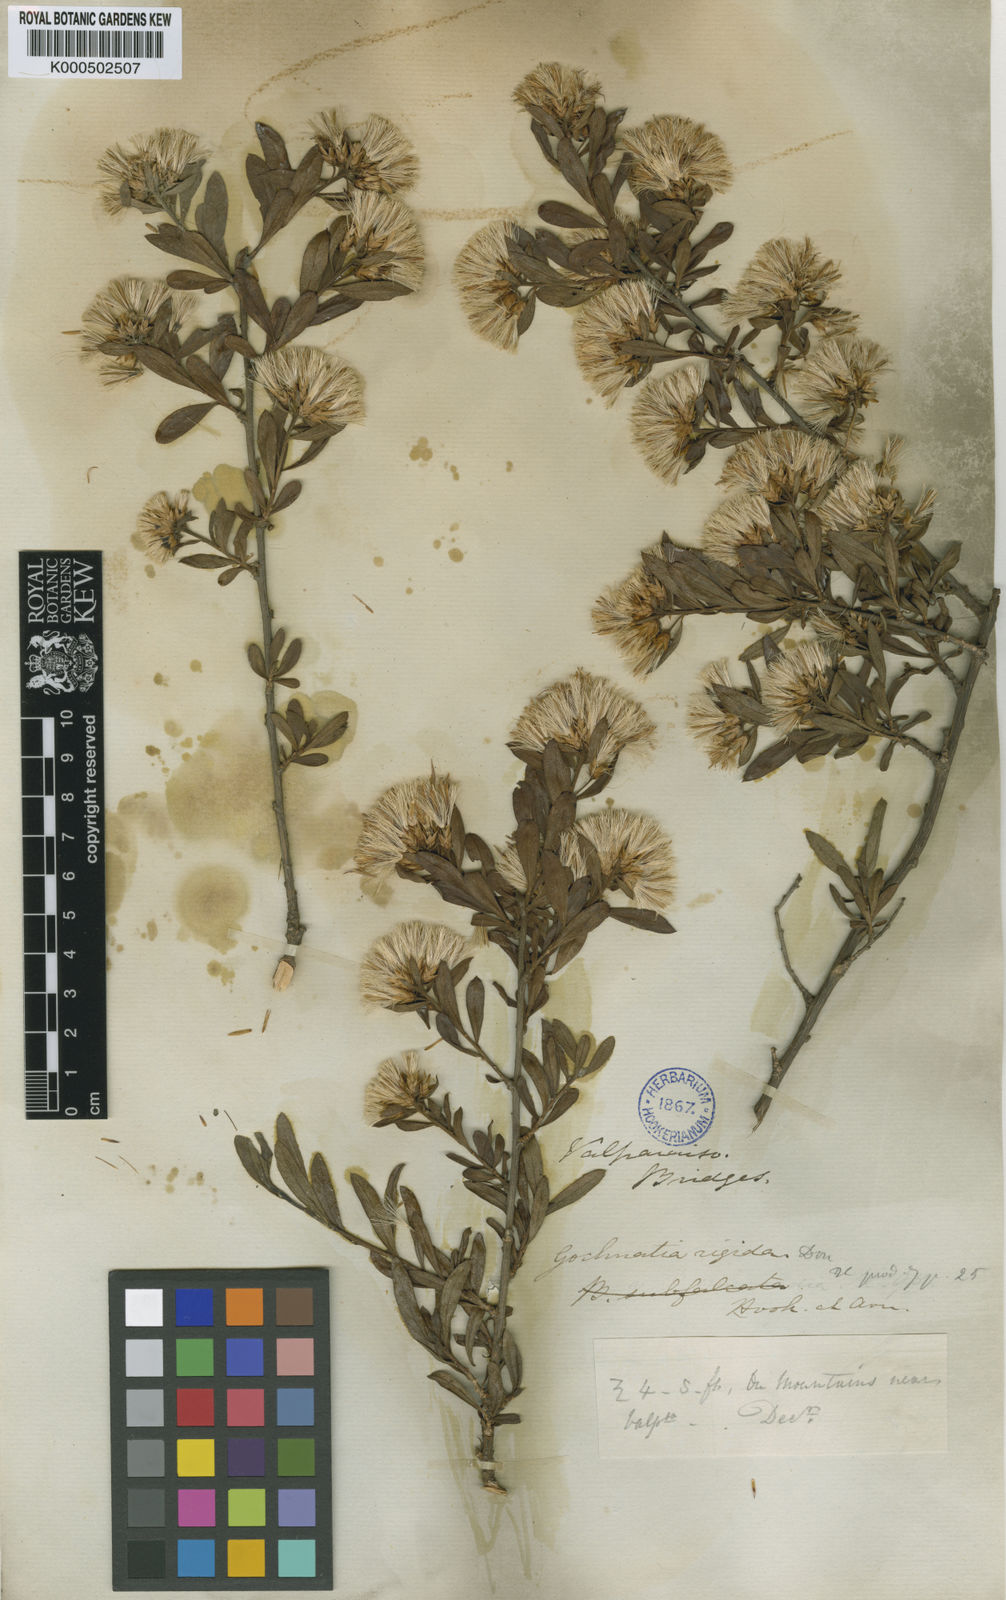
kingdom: Plantae
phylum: Tracheophyta
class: Magnoliopsida
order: Asterales
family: Asteraceae
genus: Gochnatia
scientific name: Gochnatia foliolosa
